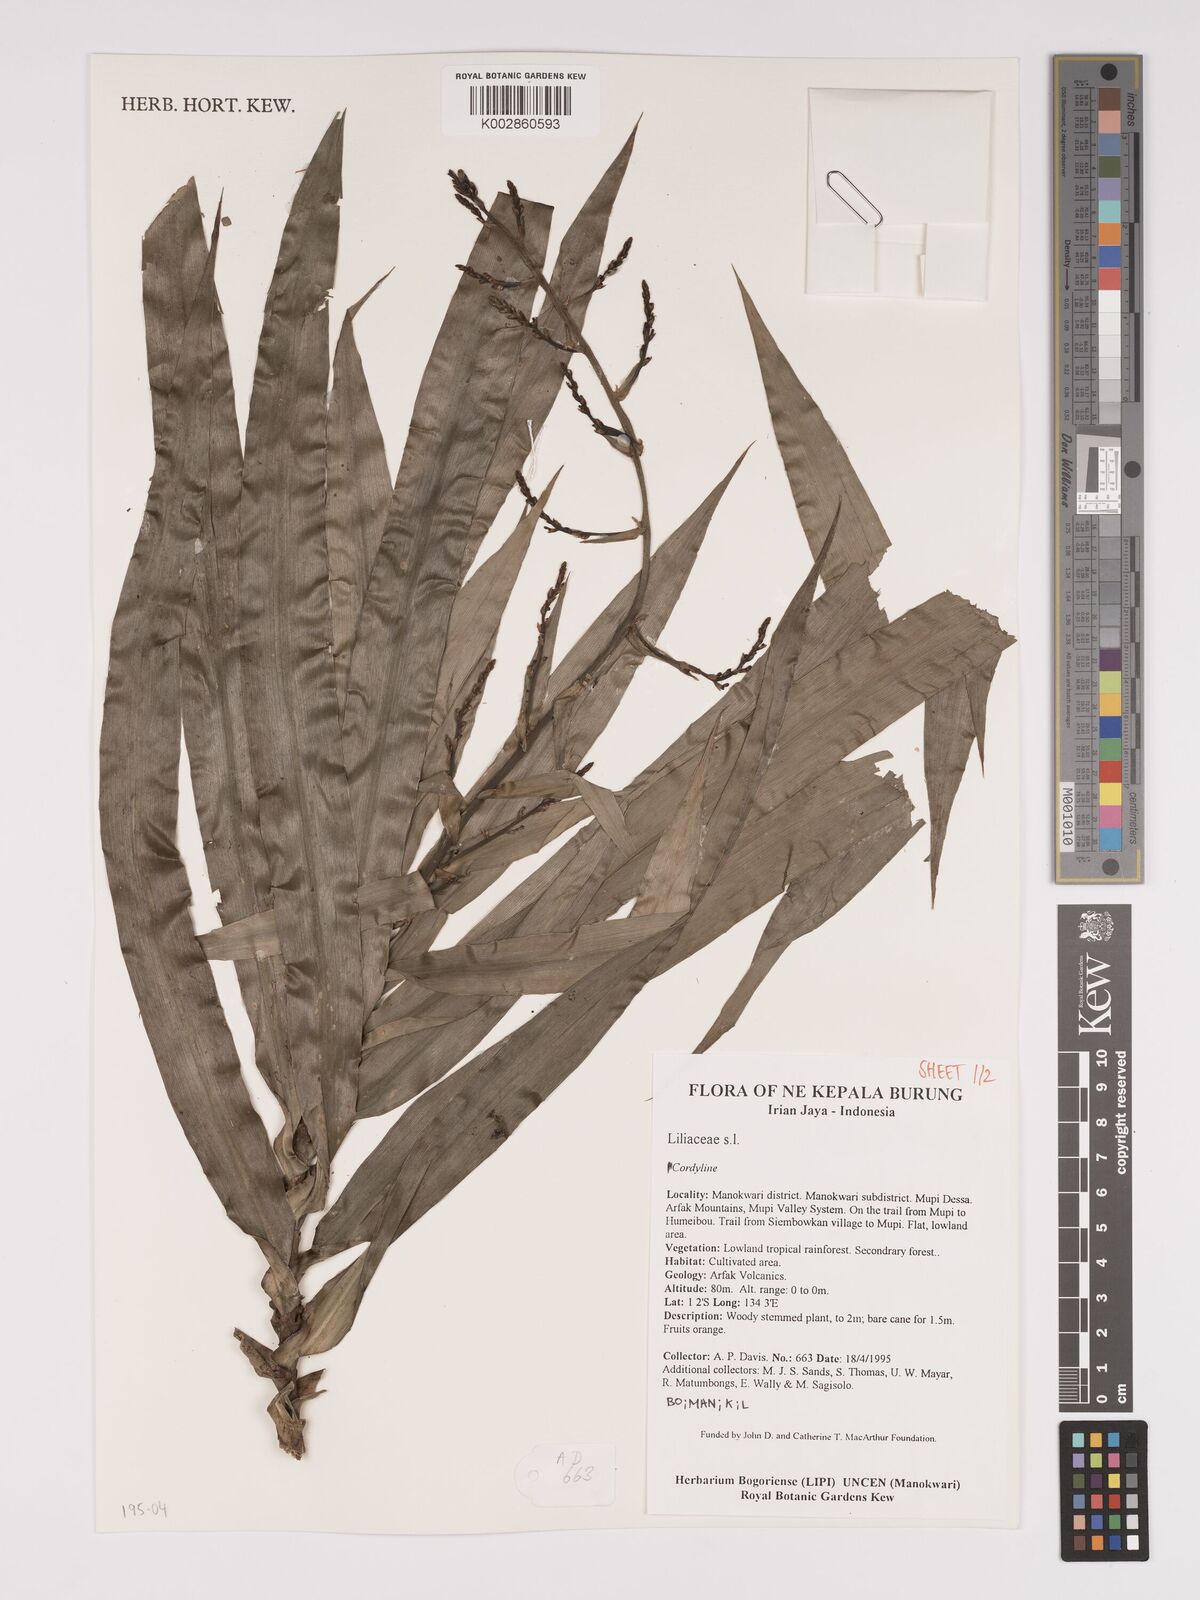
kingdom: Plantae
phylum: Tracheophyta
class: Liliopsida
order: Asparagales
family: Asparagaceae
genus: Dracaena
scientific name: Dracaena angustifolia
